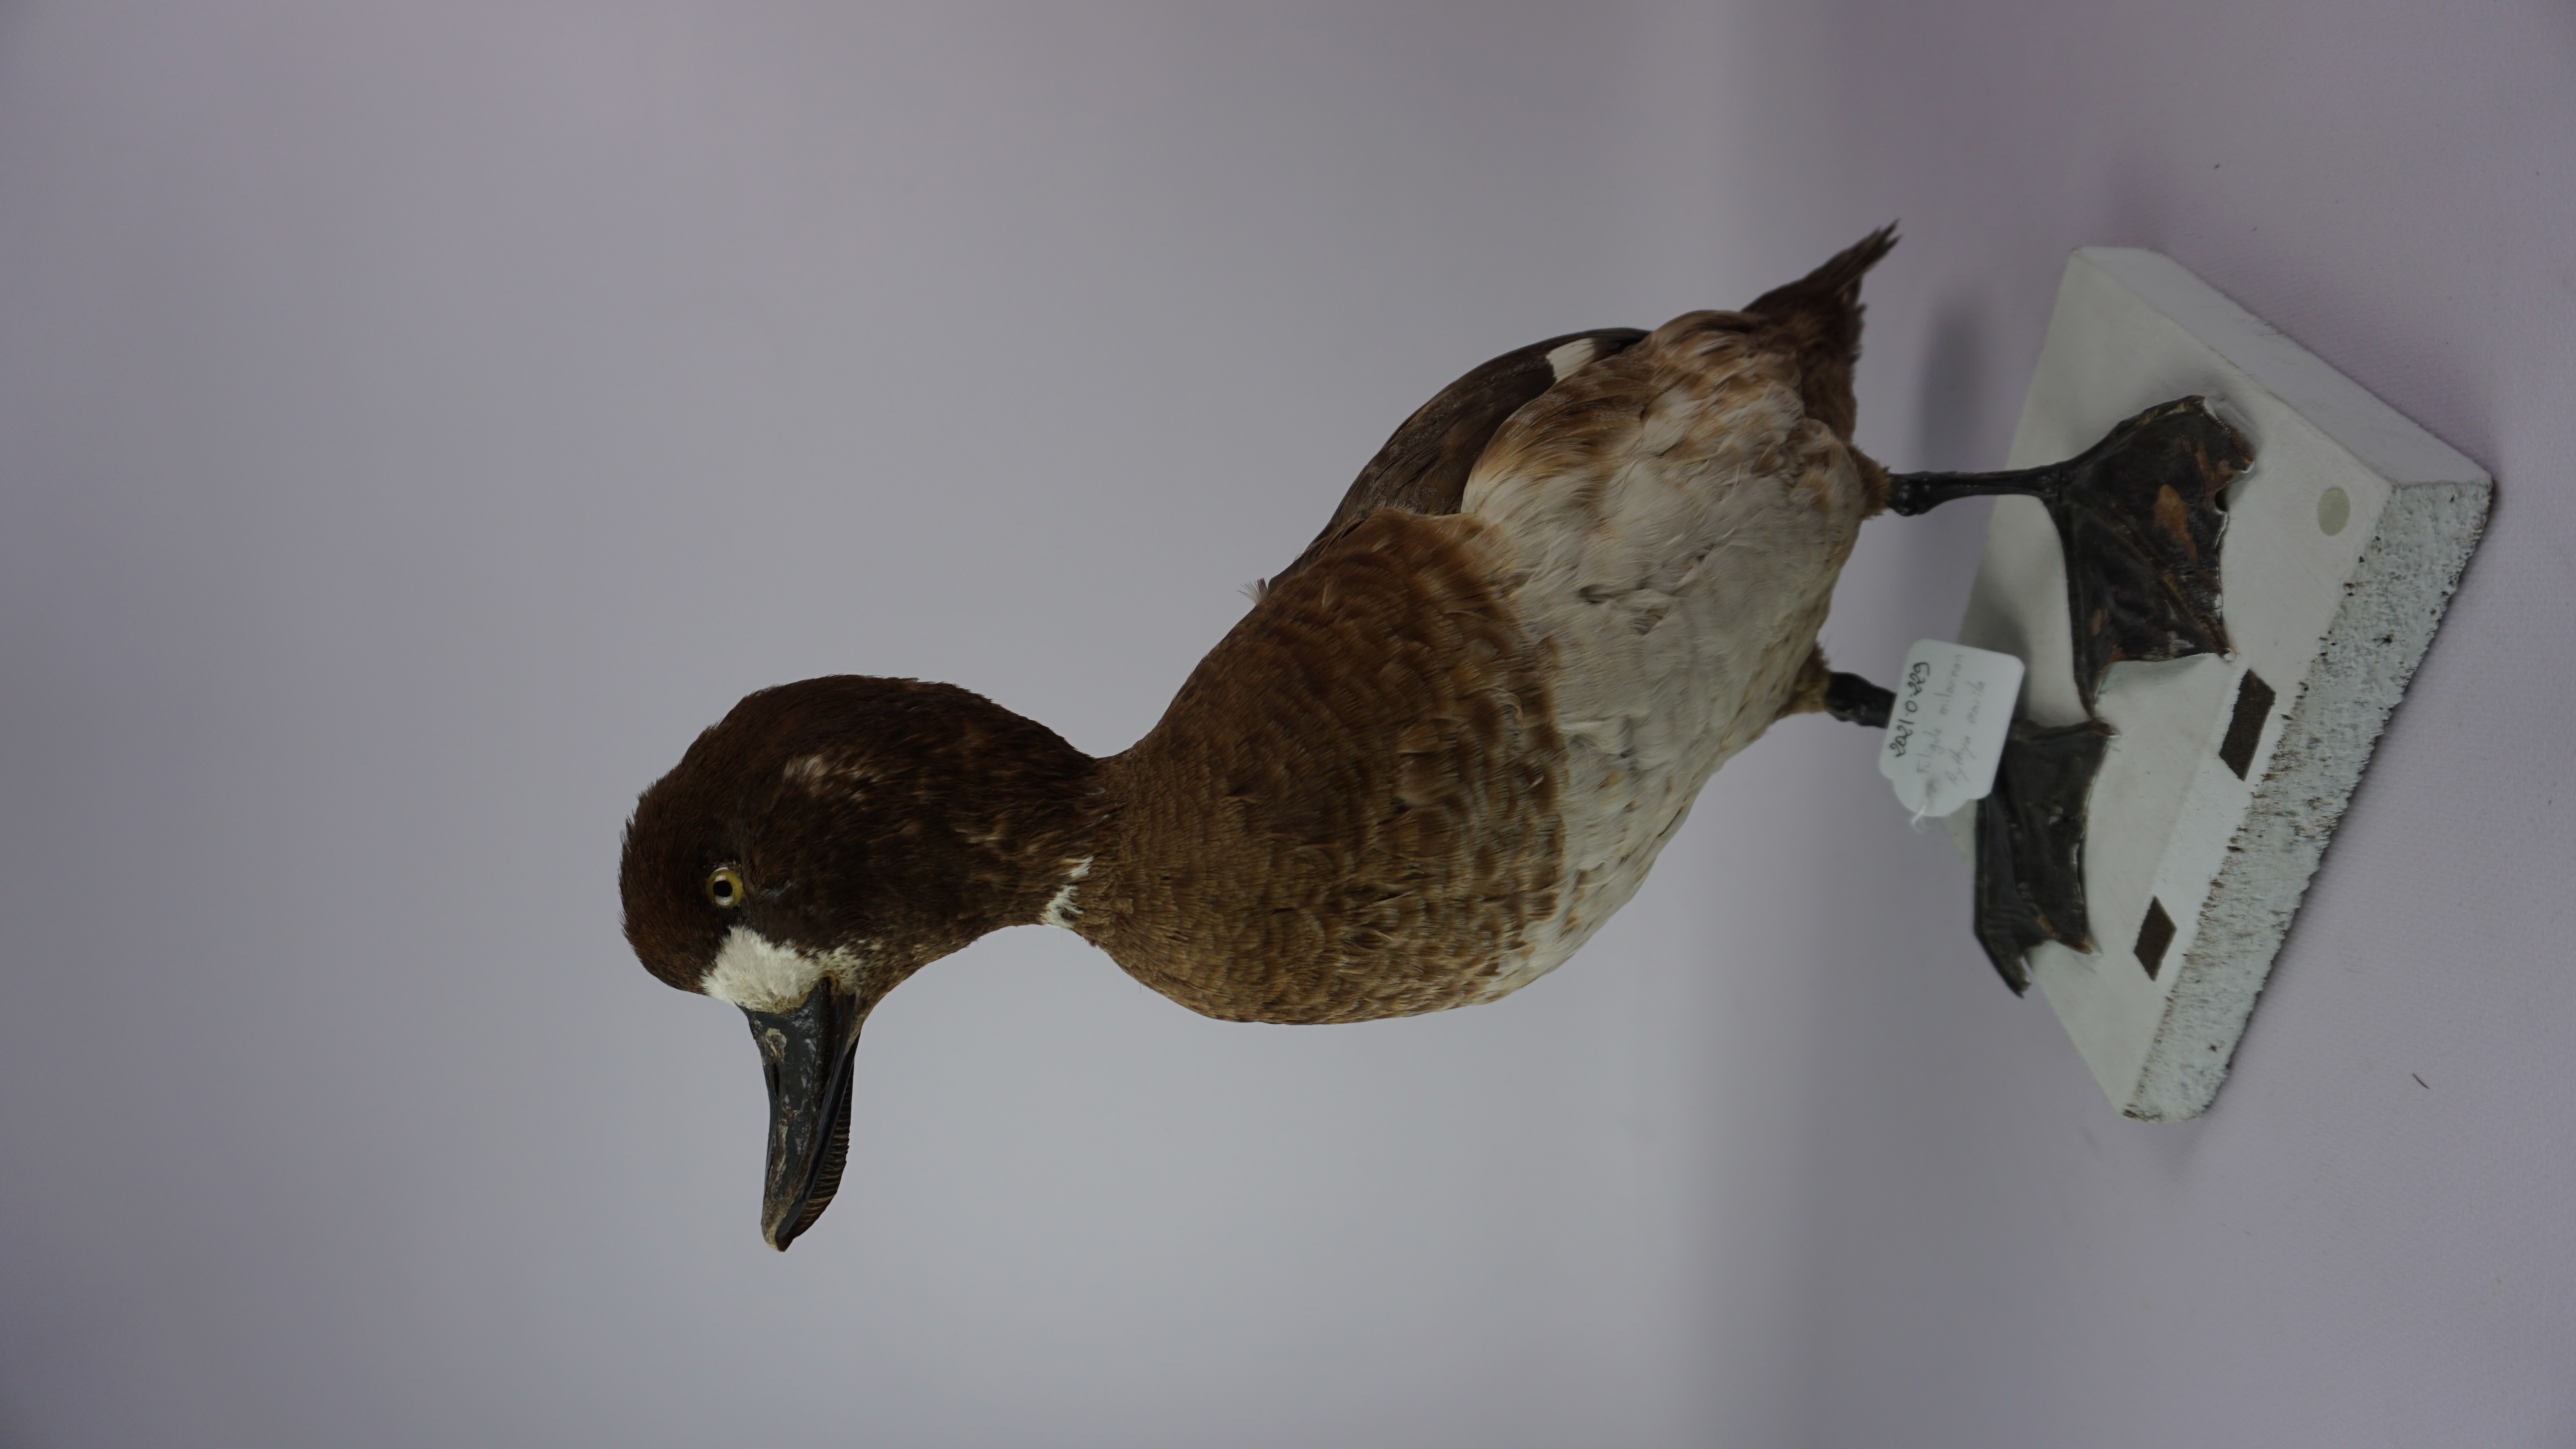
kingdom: Animalia
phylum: Chordata
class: Aves
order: Anseriformes
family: Anatidae
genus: Aythya
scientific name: Aythya marila
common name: Greater scaup
